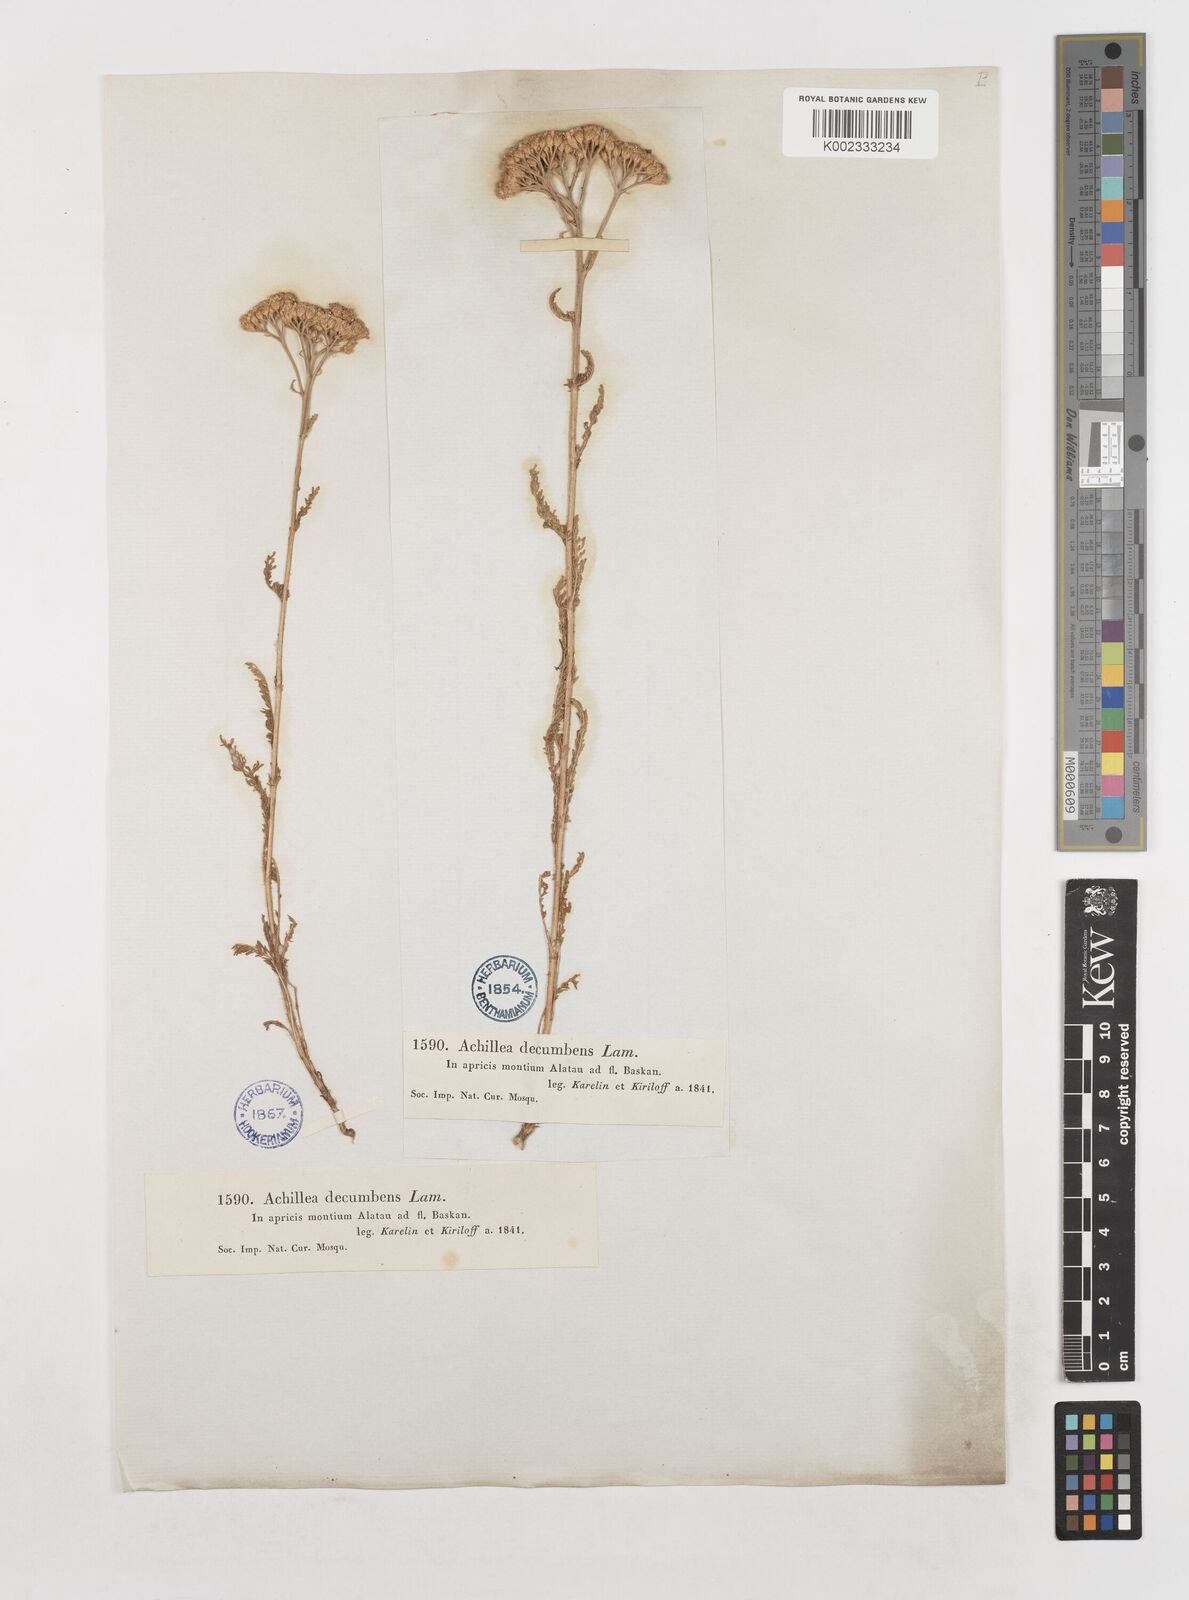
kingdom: Plantae
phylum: Tracheophyta
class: Magnoliopsida
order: Asterales
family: Asteraceae
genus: Achillea
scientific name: Achillea micrantha
